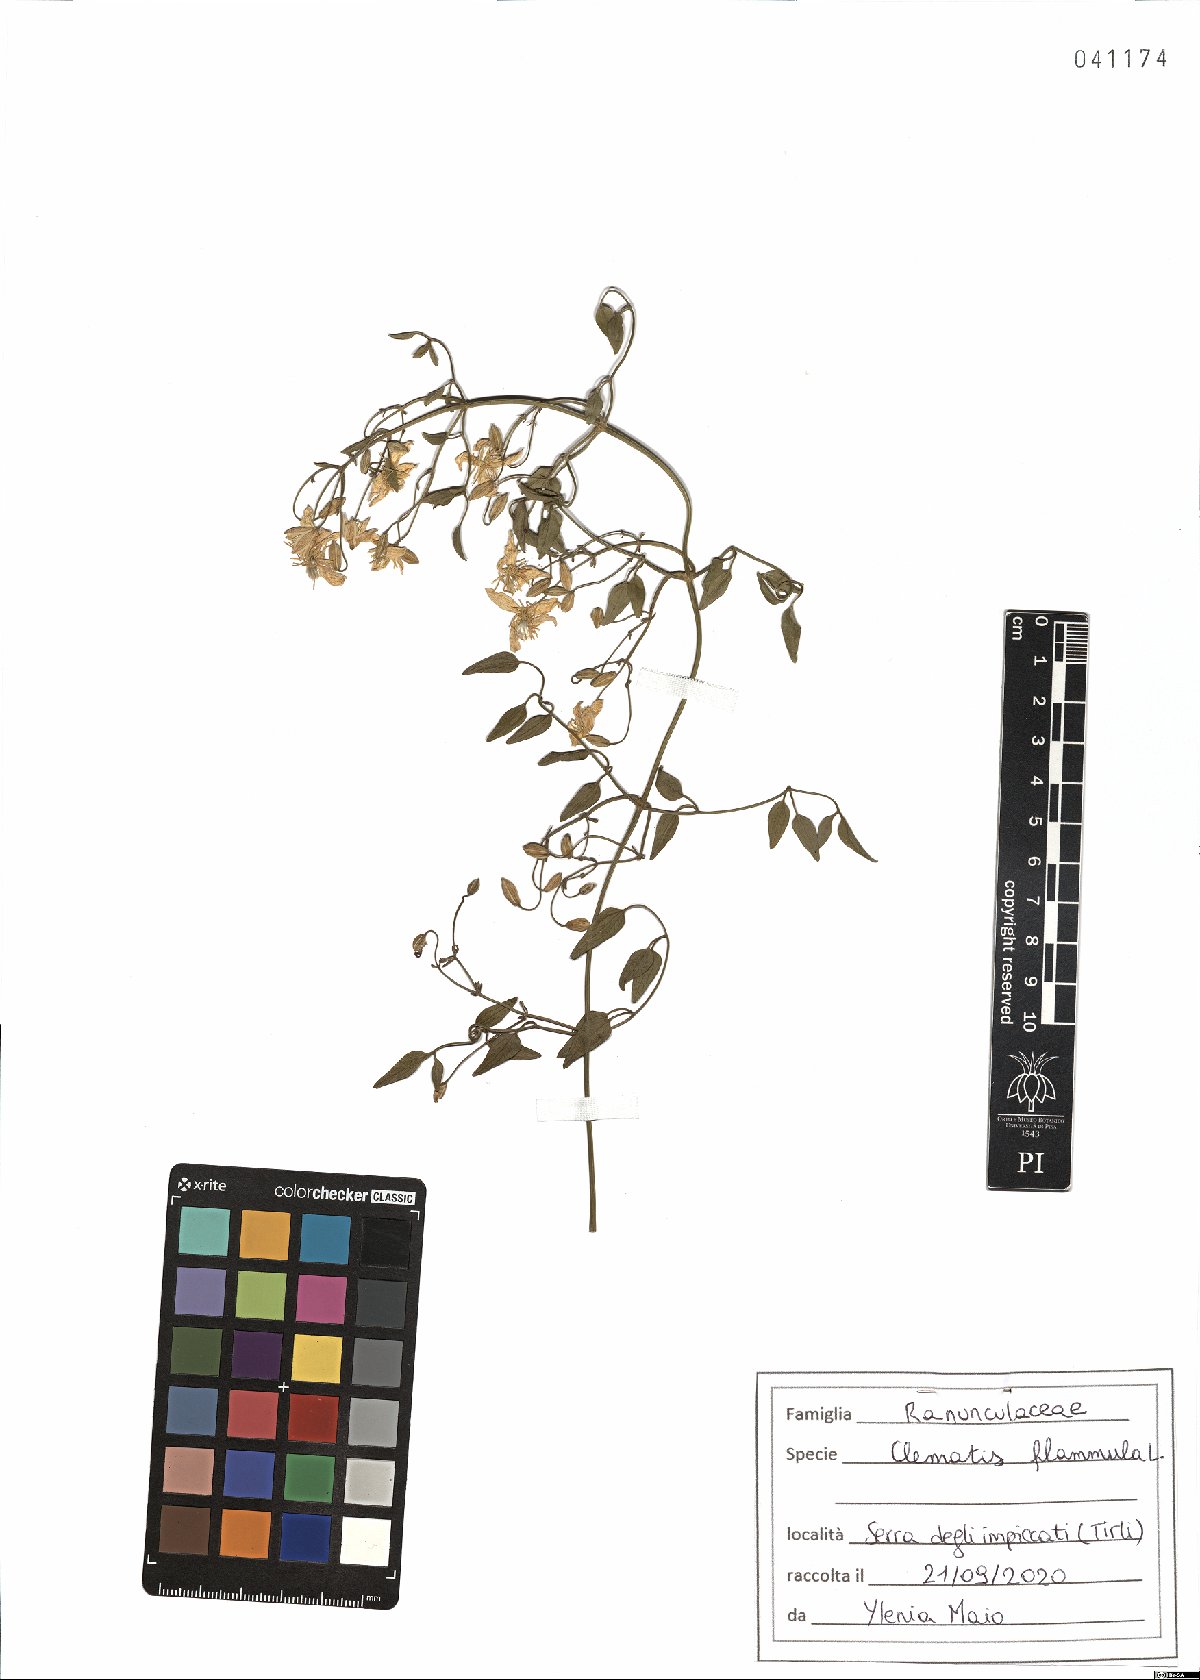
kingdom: Plantae
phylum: Tracheophyta
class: Magnoliopsida
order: Ranunculales
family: Ranunculaceae
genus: Clematis
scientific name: Clematis flammula
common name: Virgin's-bower
